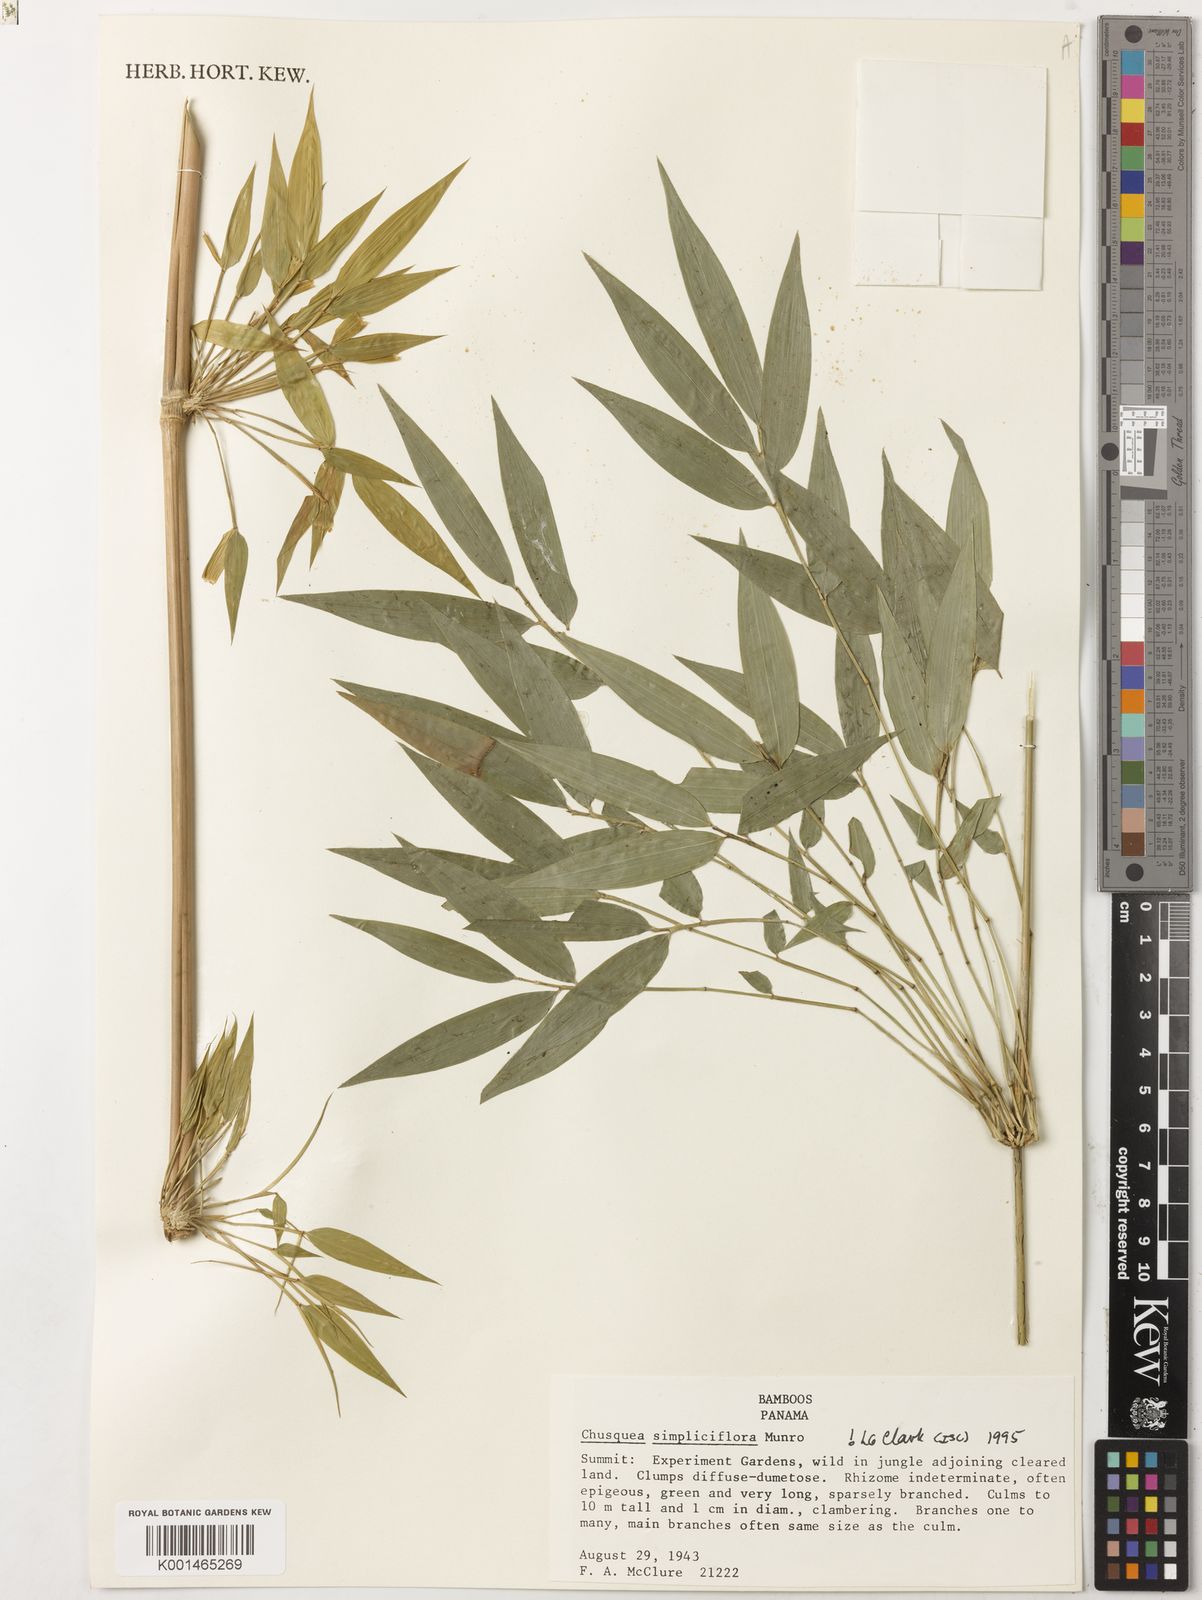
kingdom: Plantae
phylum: Tracheophyta
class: Liliopsida
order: Poales
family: Poaceae
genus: Chusquea
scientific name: Chusquea simpliciflora
